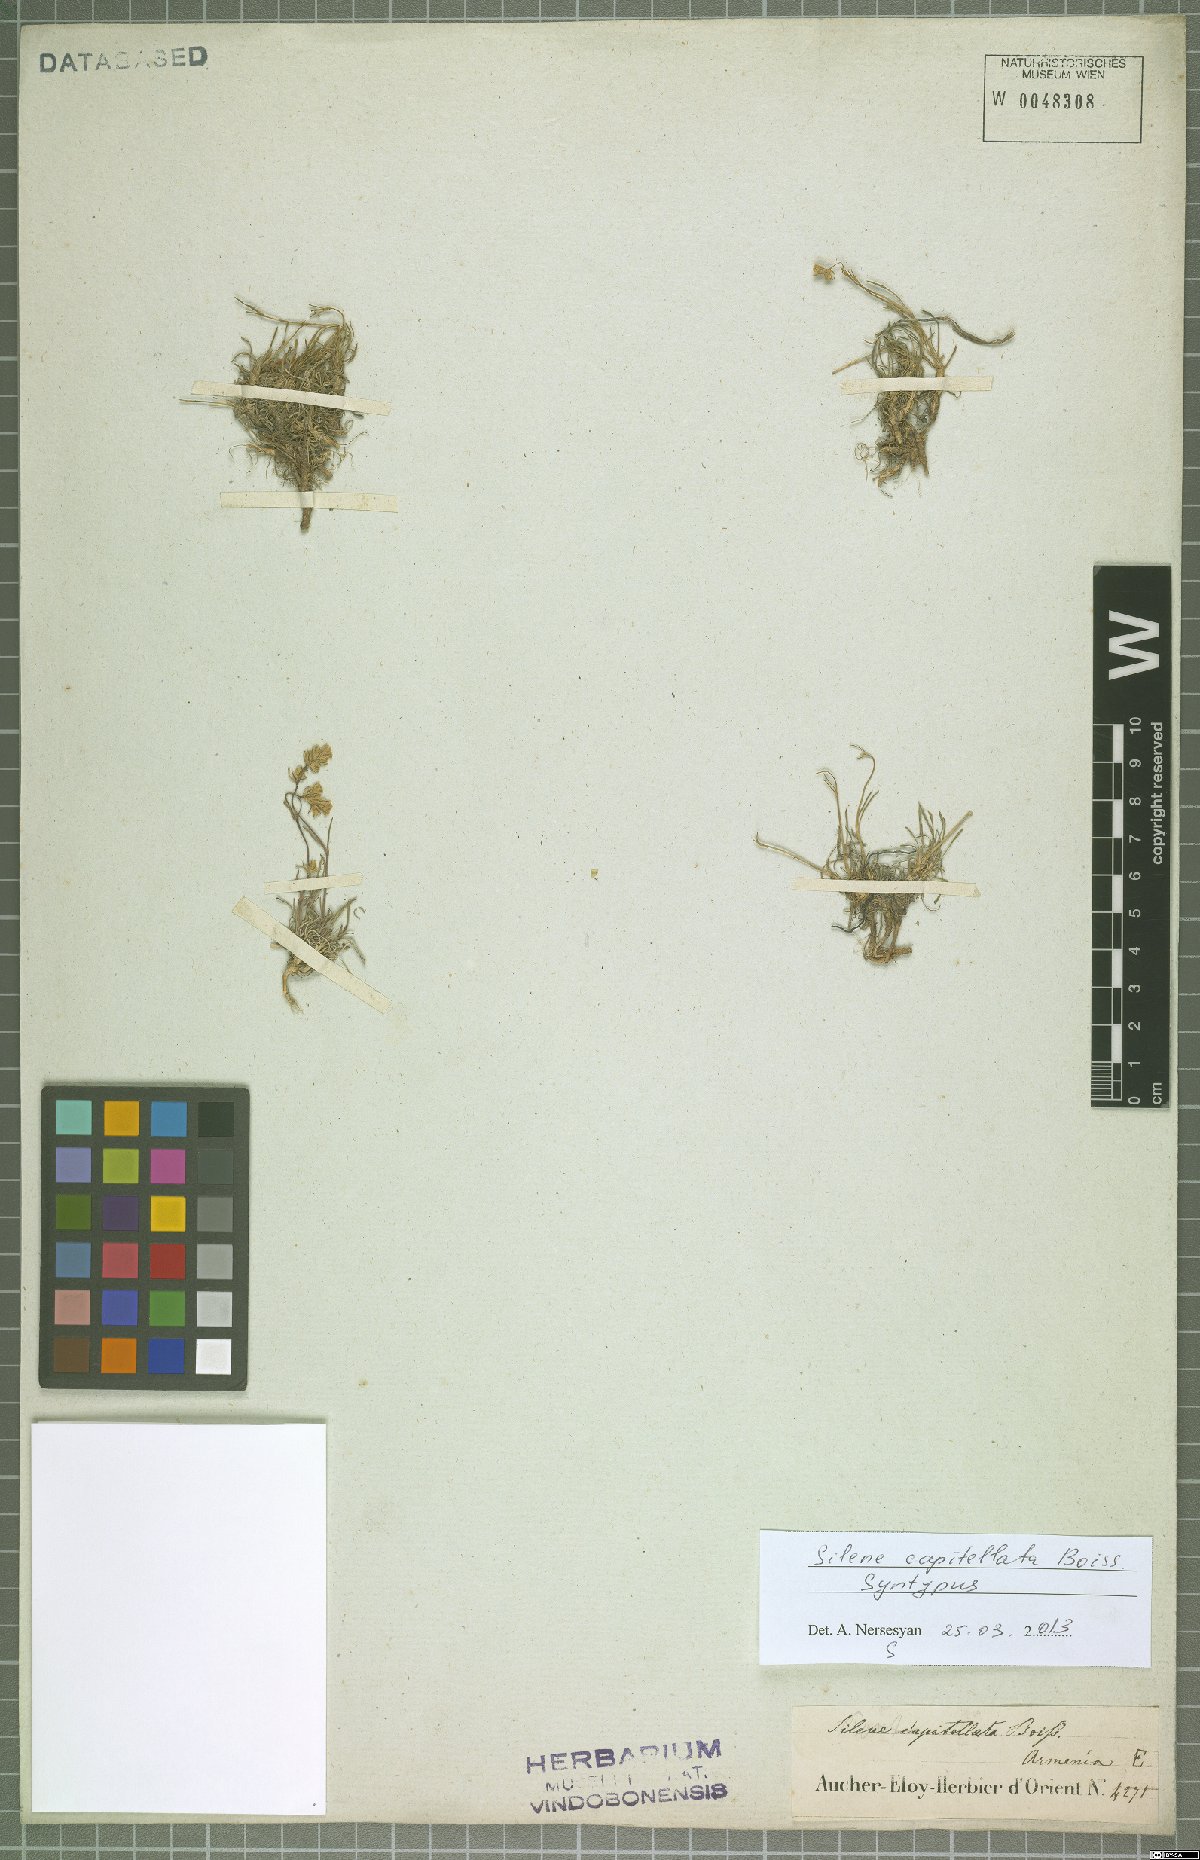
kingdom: Plantae
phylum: Tracheophyta
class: Magnoliopsida
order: Caryophyllales
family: Caryophyllaceae
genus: Silene
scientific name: Silene capitellata
